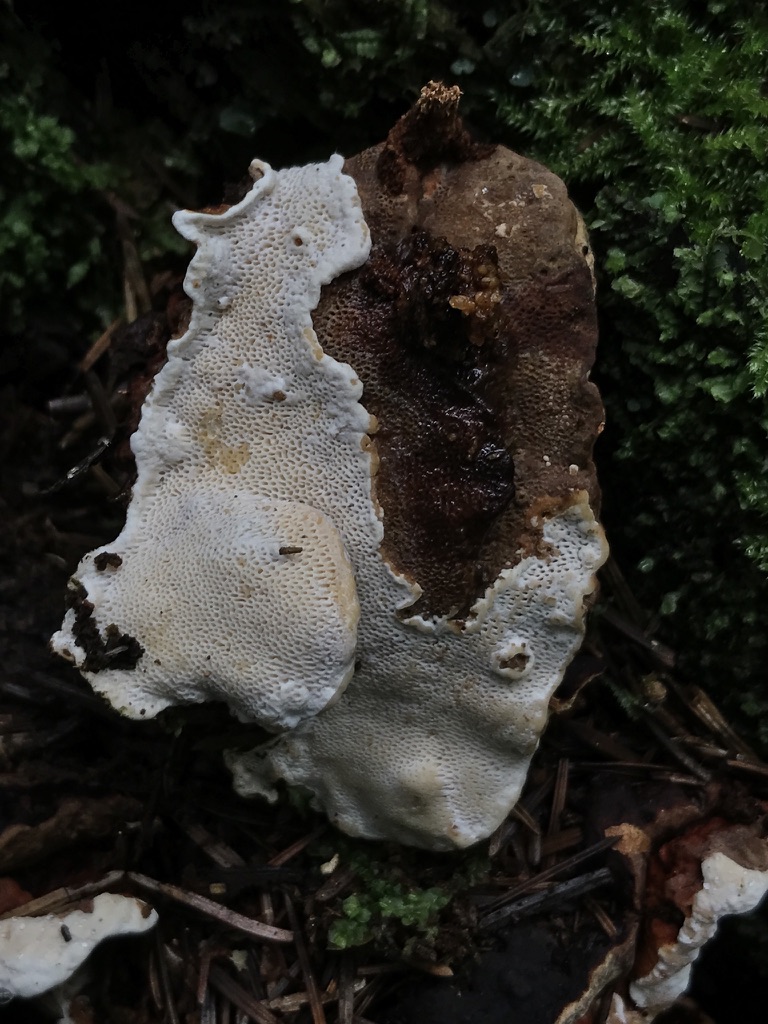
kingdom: Fungi
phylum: Basidiomycota
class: Agaricomycetes
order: Russulales
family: Bondarzewiaceae
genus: Heterobasidion
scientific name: Heterobasidion annosum
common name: almindelig rodfordærver
